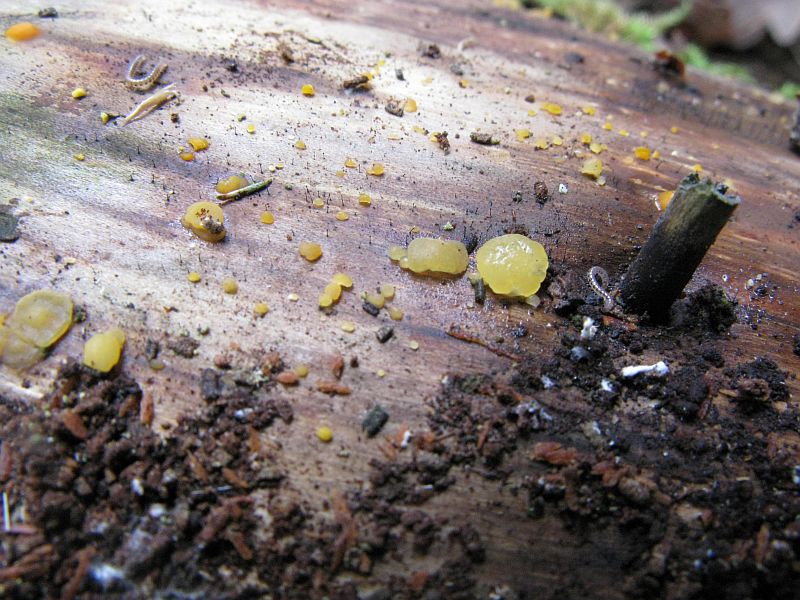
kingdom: Fungi
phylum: Basidiomycota
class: Dacrymycetes
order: Dacrymycetales
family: Dacrymycetaceae
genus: Dacrymyces
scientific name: Dacrymyces lacrymalis
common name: rynket tåresvamp
